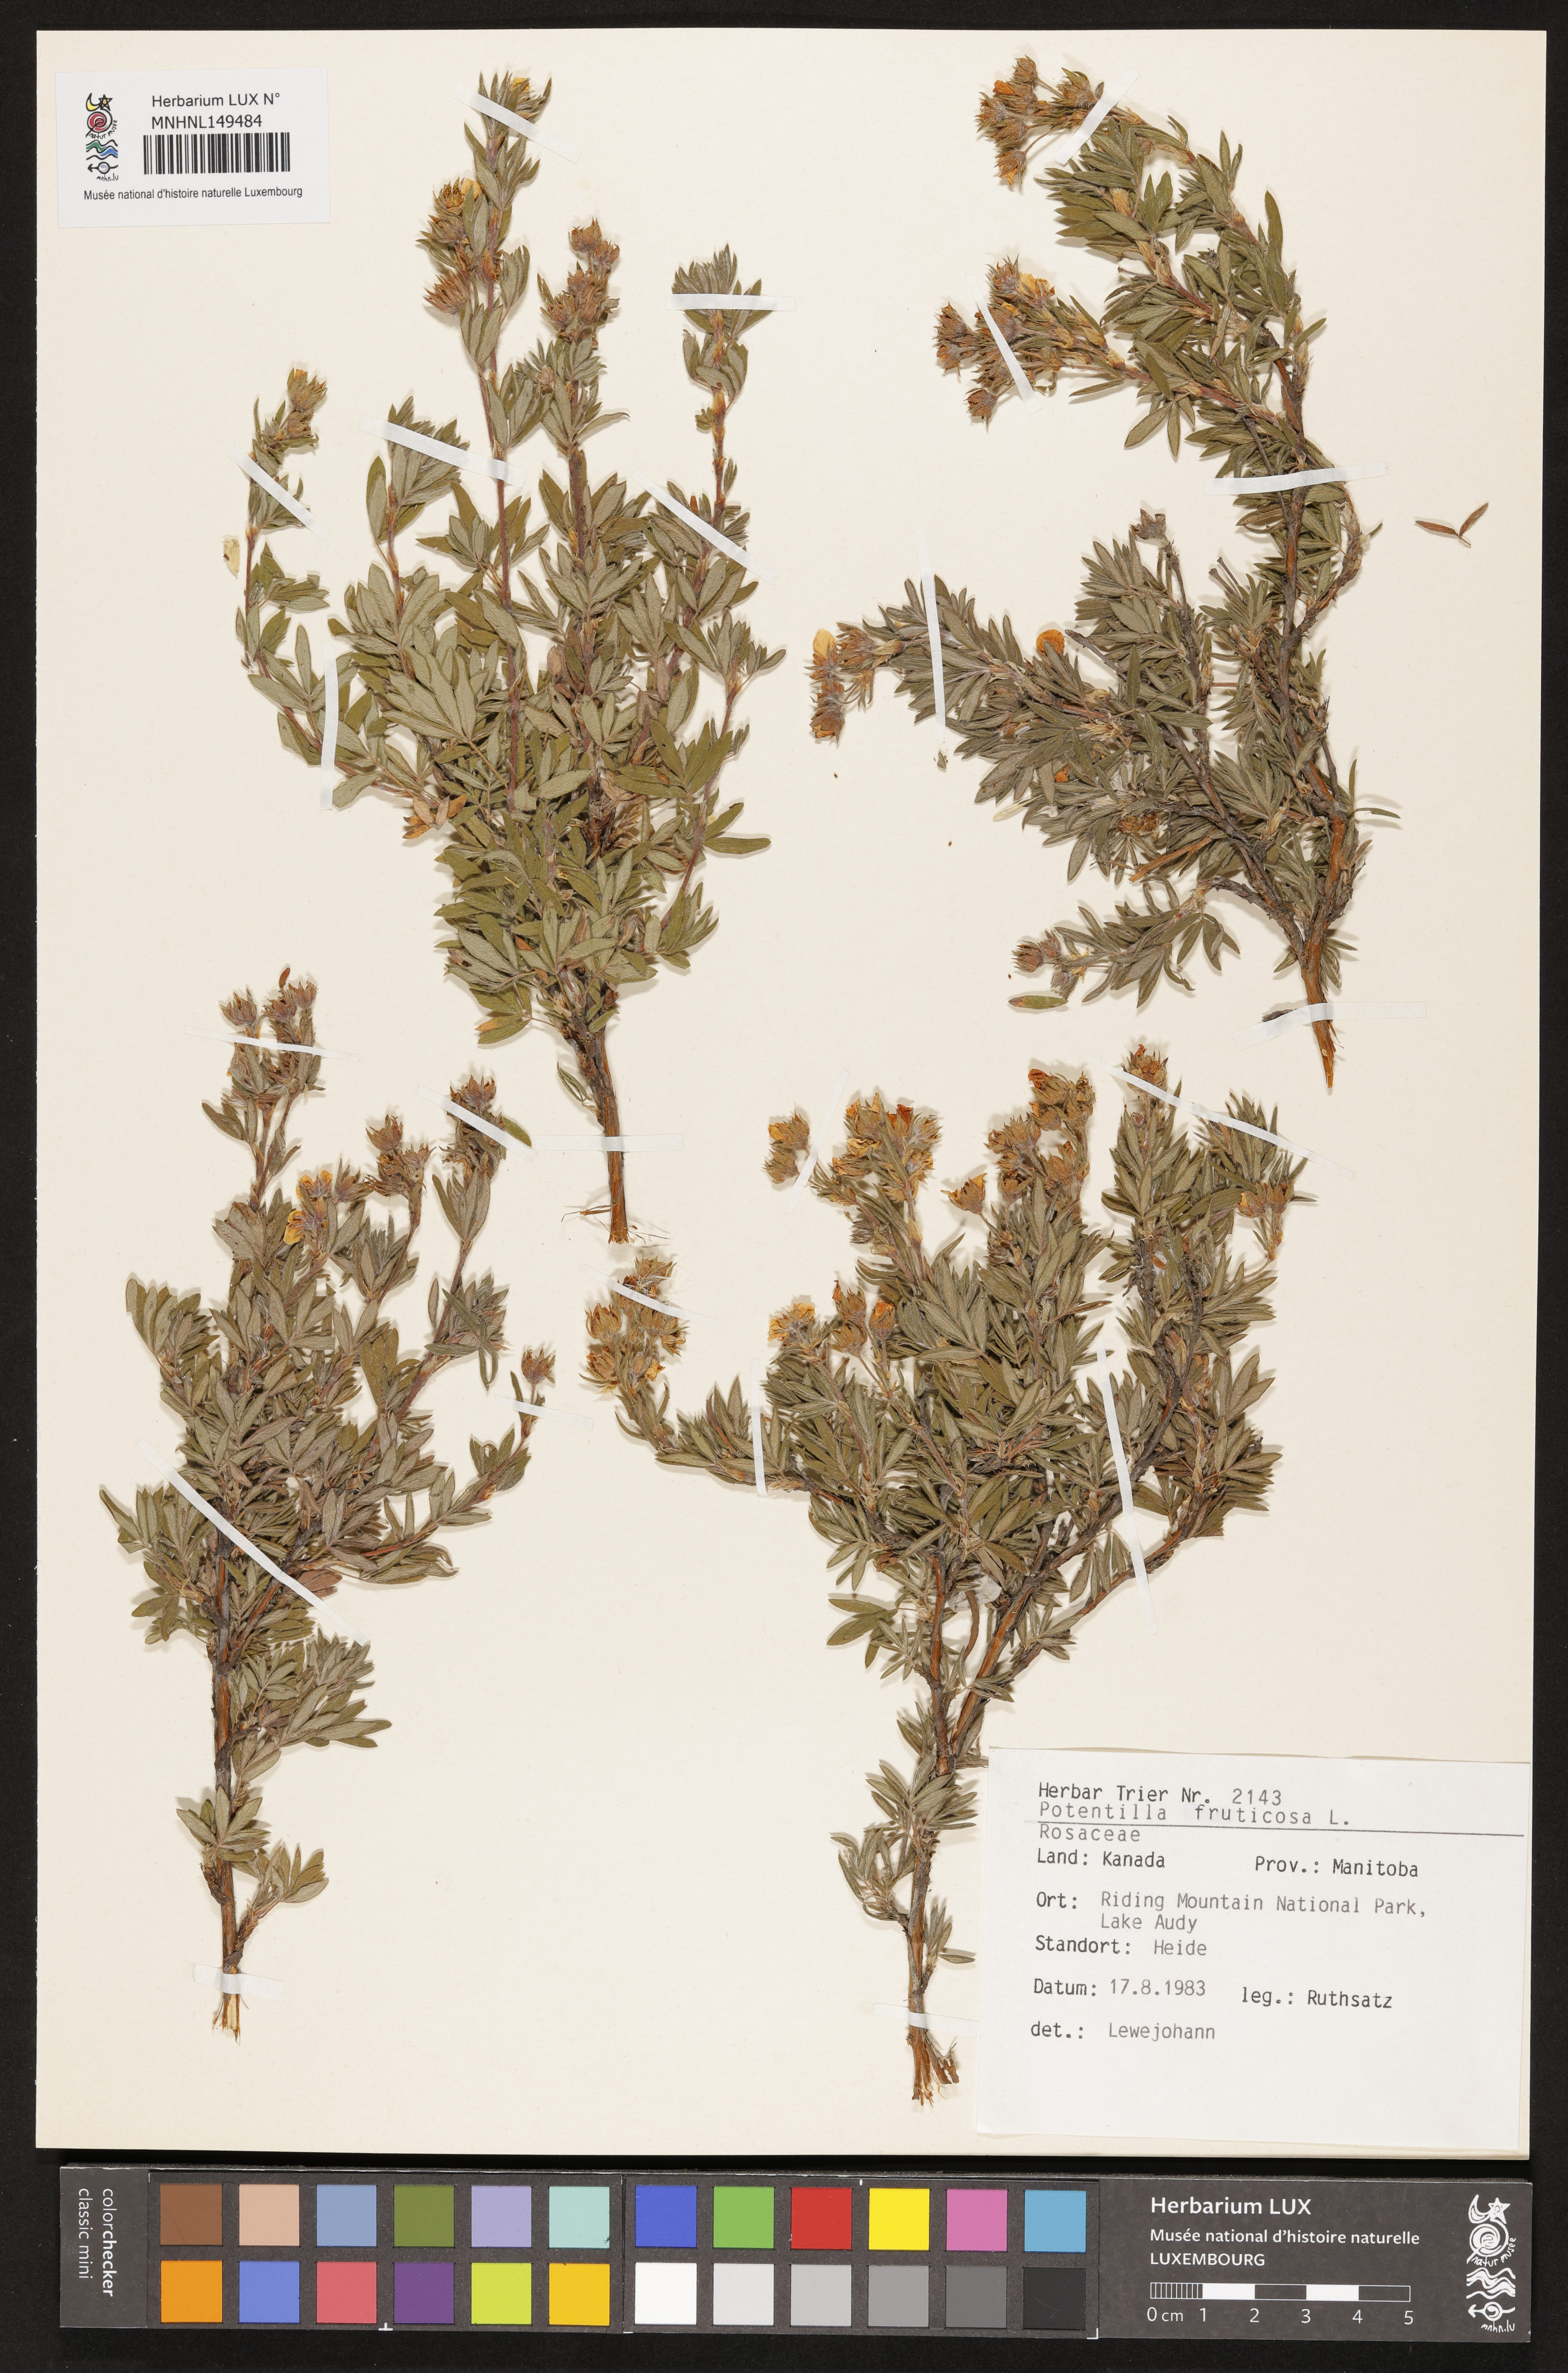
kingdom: Plantae
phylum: Tracheophyta
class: Magnoliopsida
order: Rosales
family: Rosaceae
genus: Dasiphora
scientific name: Dasiphora fruticosa
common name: Shrubby cinquefoil
